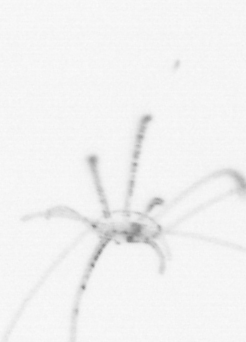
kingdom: Animalia
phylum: Cnidaria
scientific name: Cnidaria
